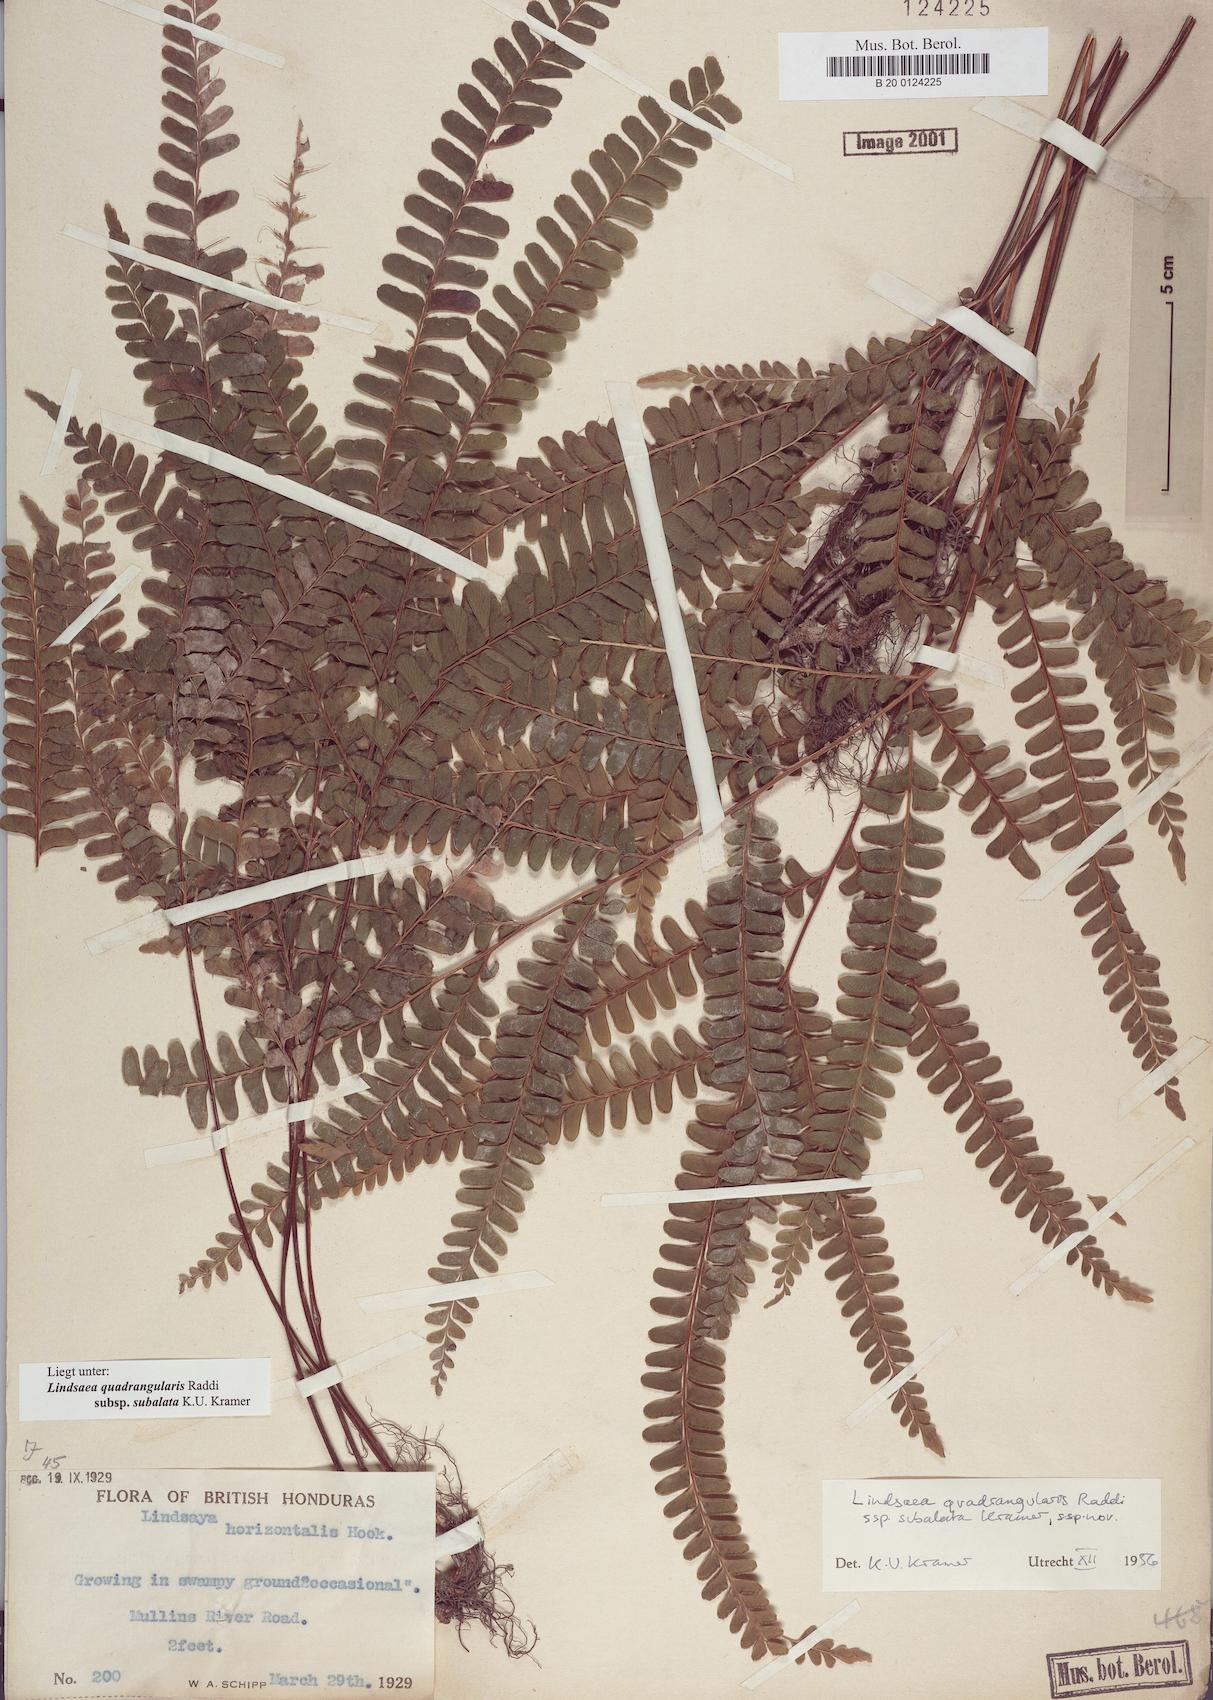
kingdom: Plantae
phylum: Tracheophyta
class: Polypodiopsida
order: Polypodiales
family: Lindsaeaceae
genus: Lindsaea
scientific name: Lindsaea subalata
